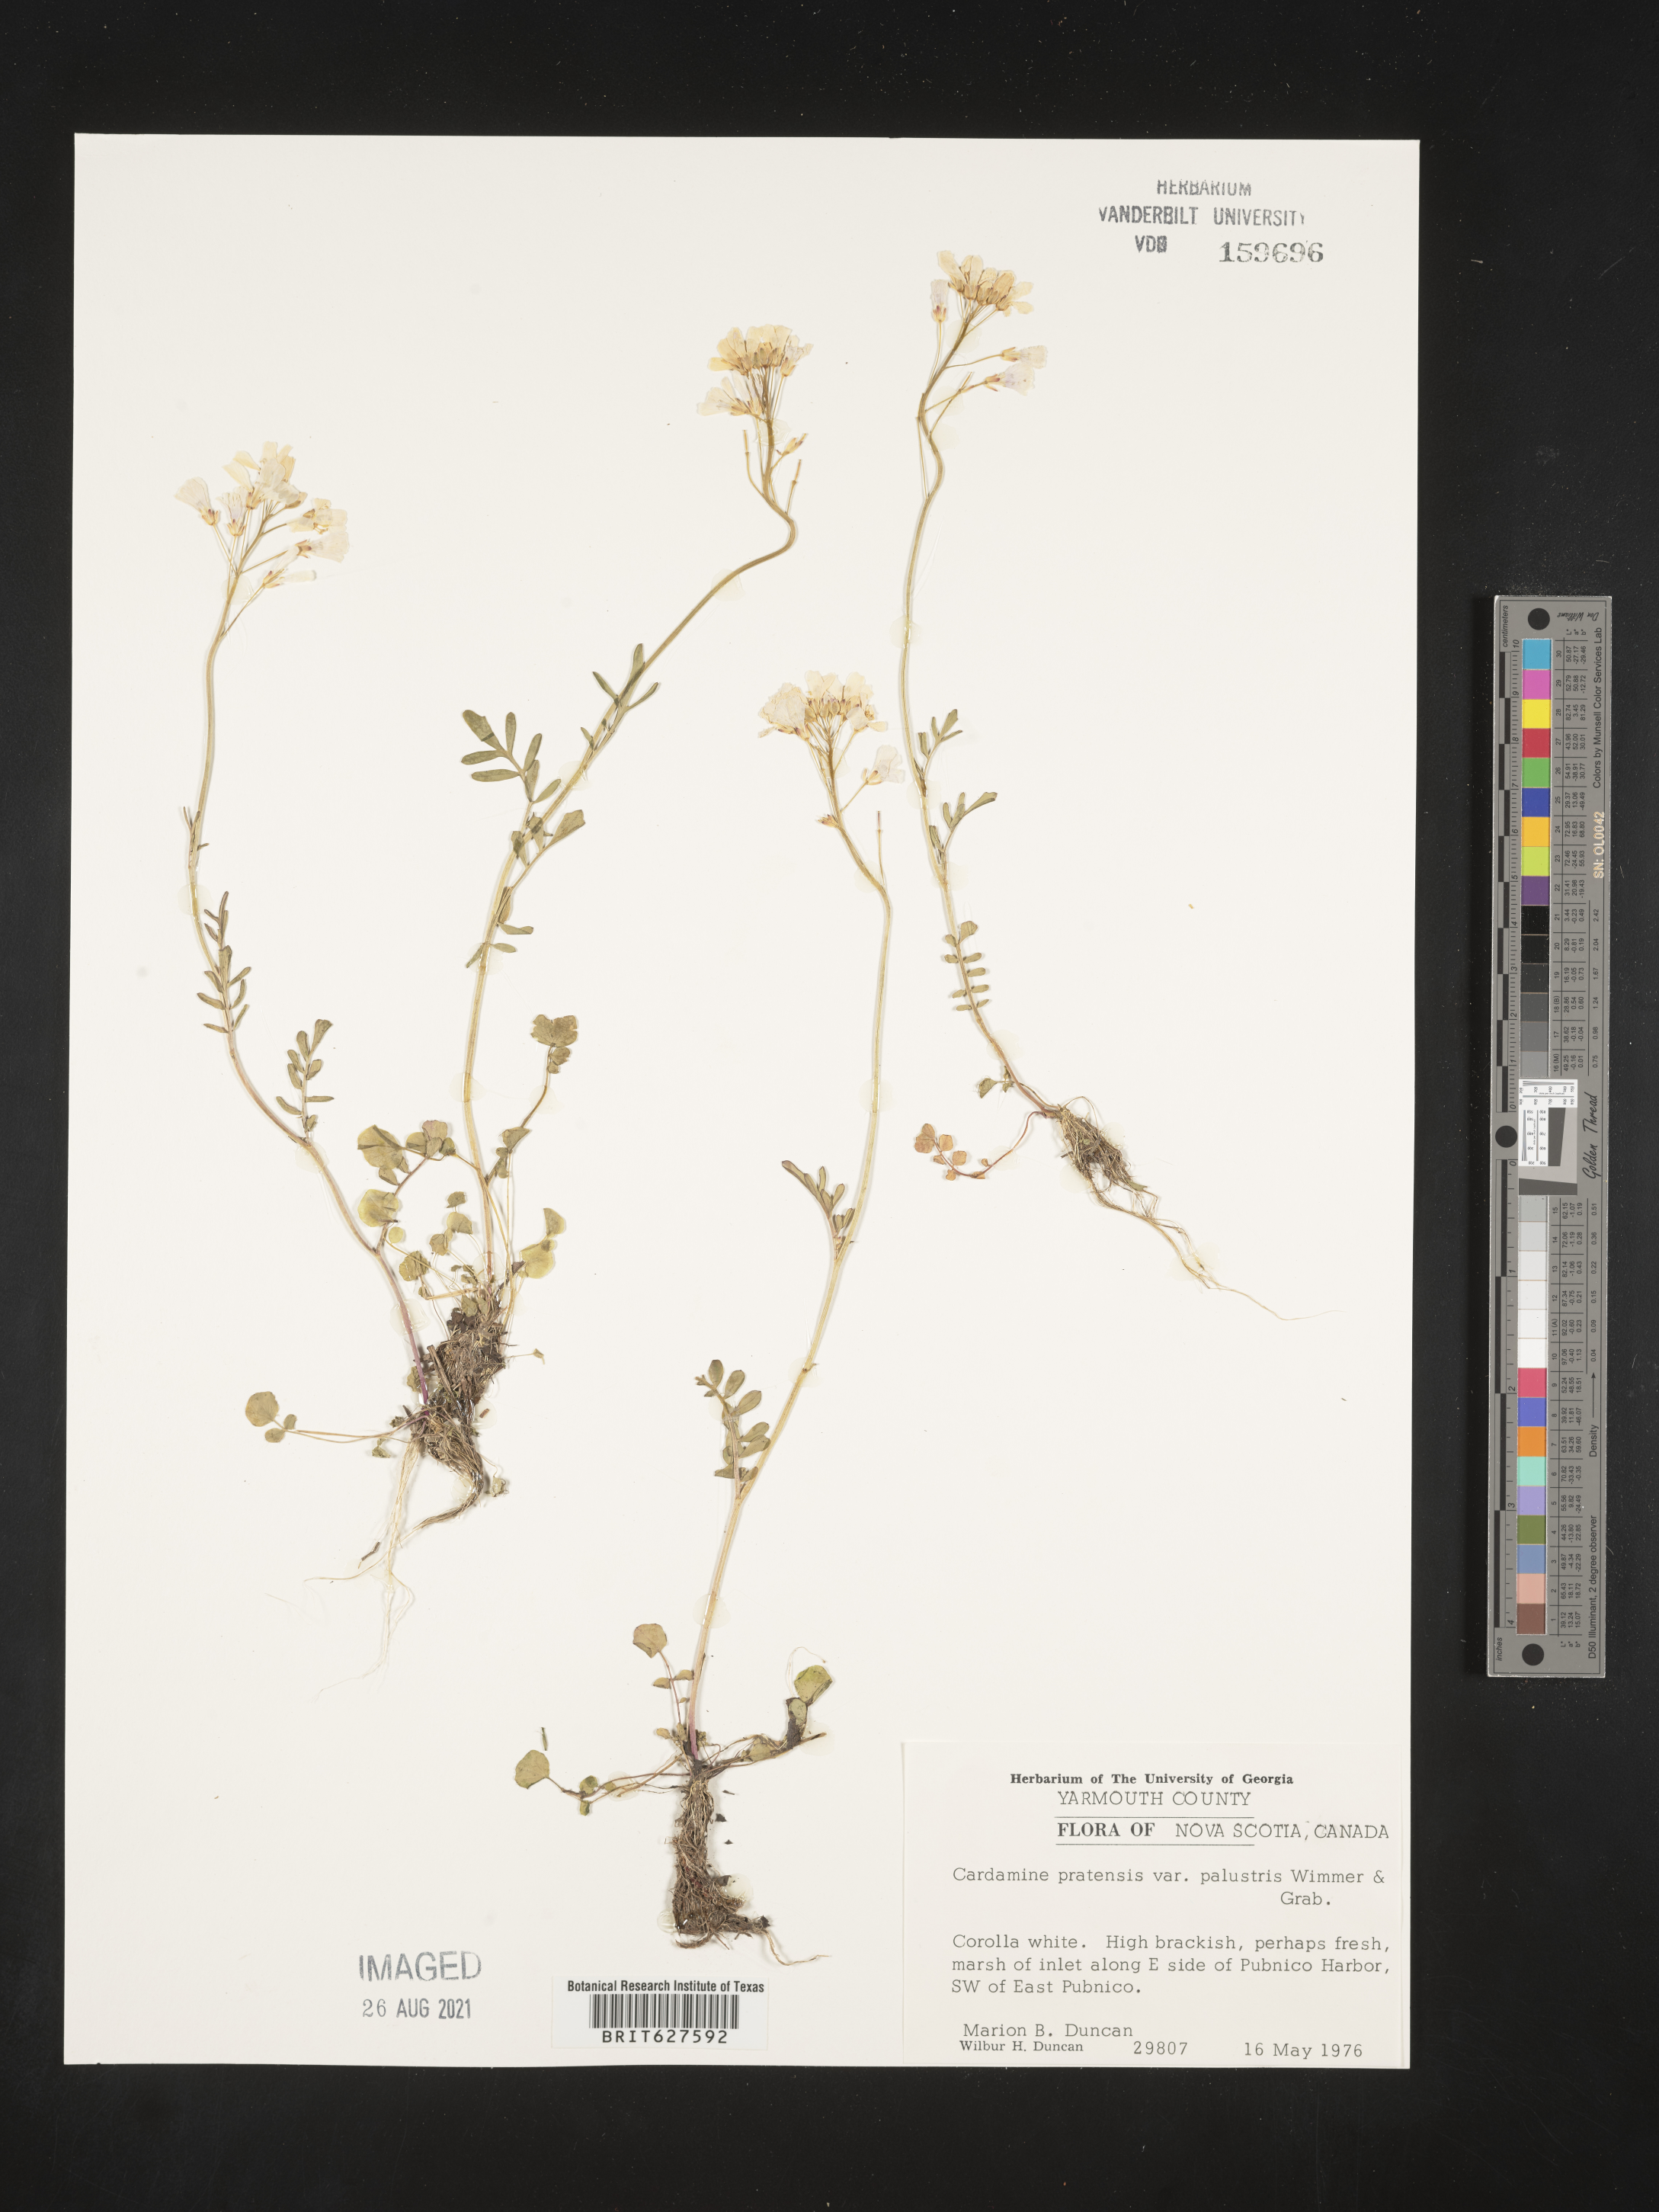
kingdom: Plantae
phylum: Tracheophyta
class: Magnoliopsida
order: Brassicales
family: Brassicaceae
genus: Cardamine
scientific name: Cardamine pratensis
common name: Cuckoo flower
